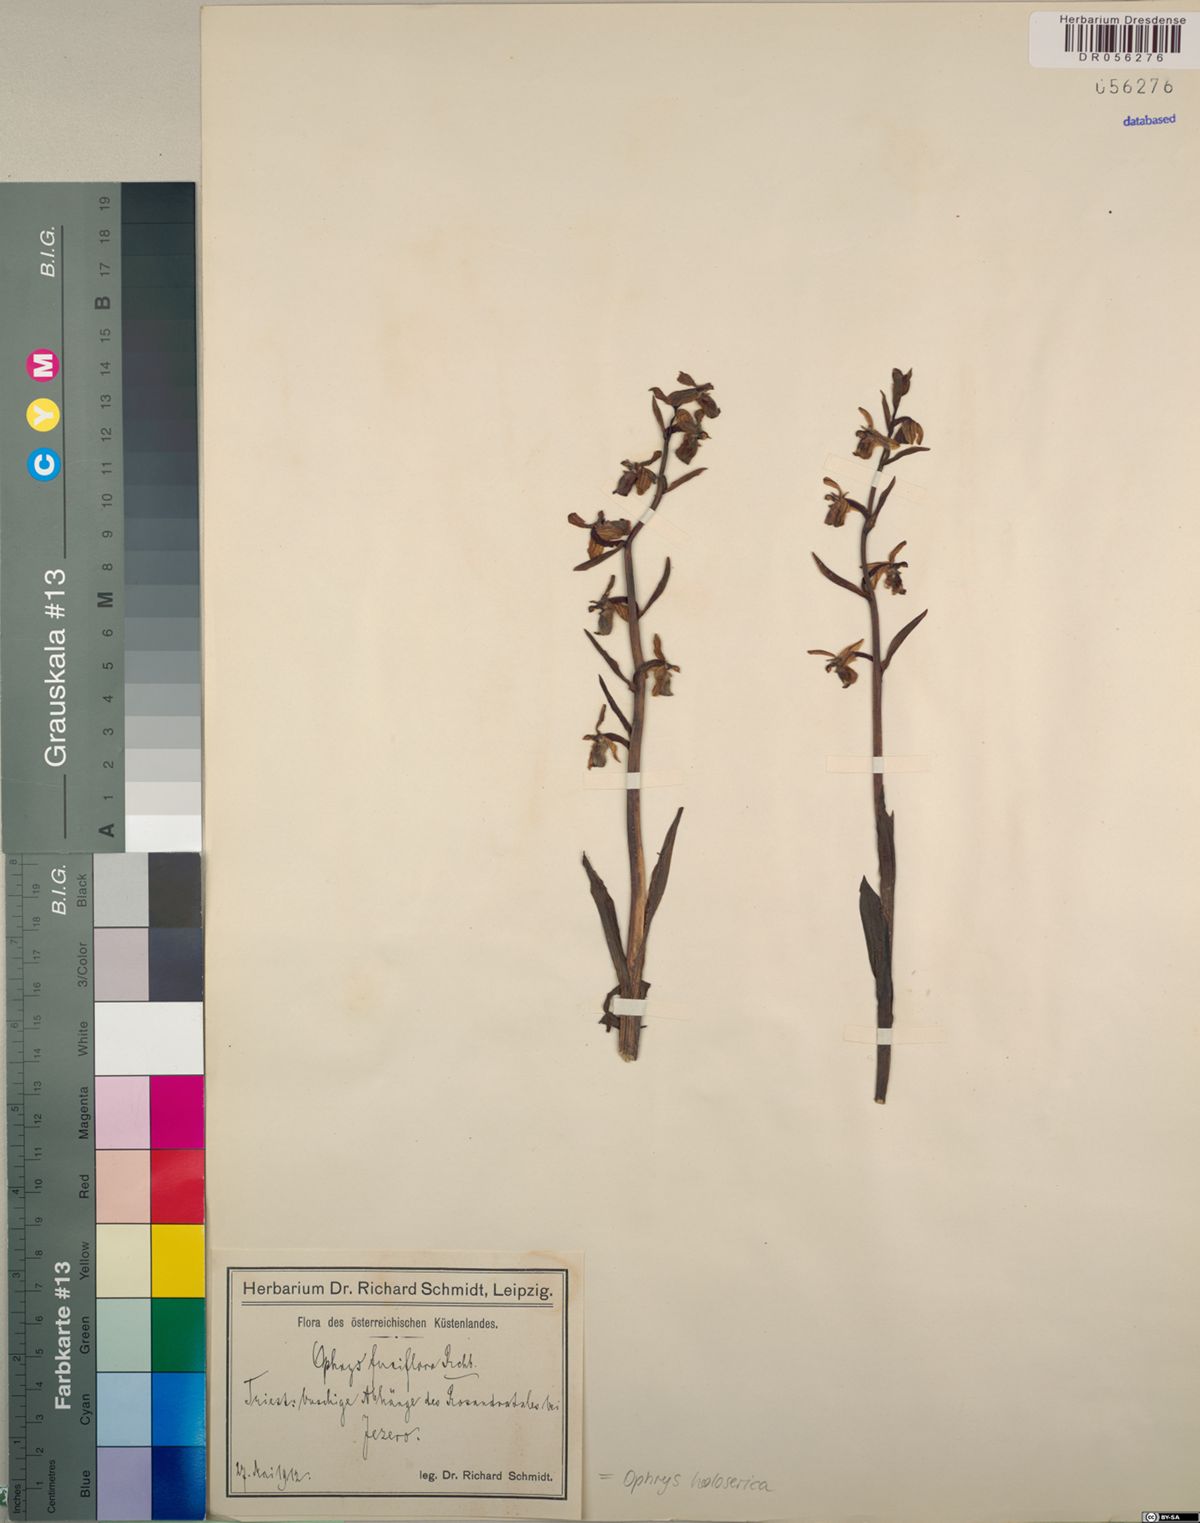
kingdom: Plantae
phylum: Tracheophyta
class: Liliopsida
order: Asparagales
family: Orchidaceae
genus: Ophrys
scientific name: Ophrys holosericea
